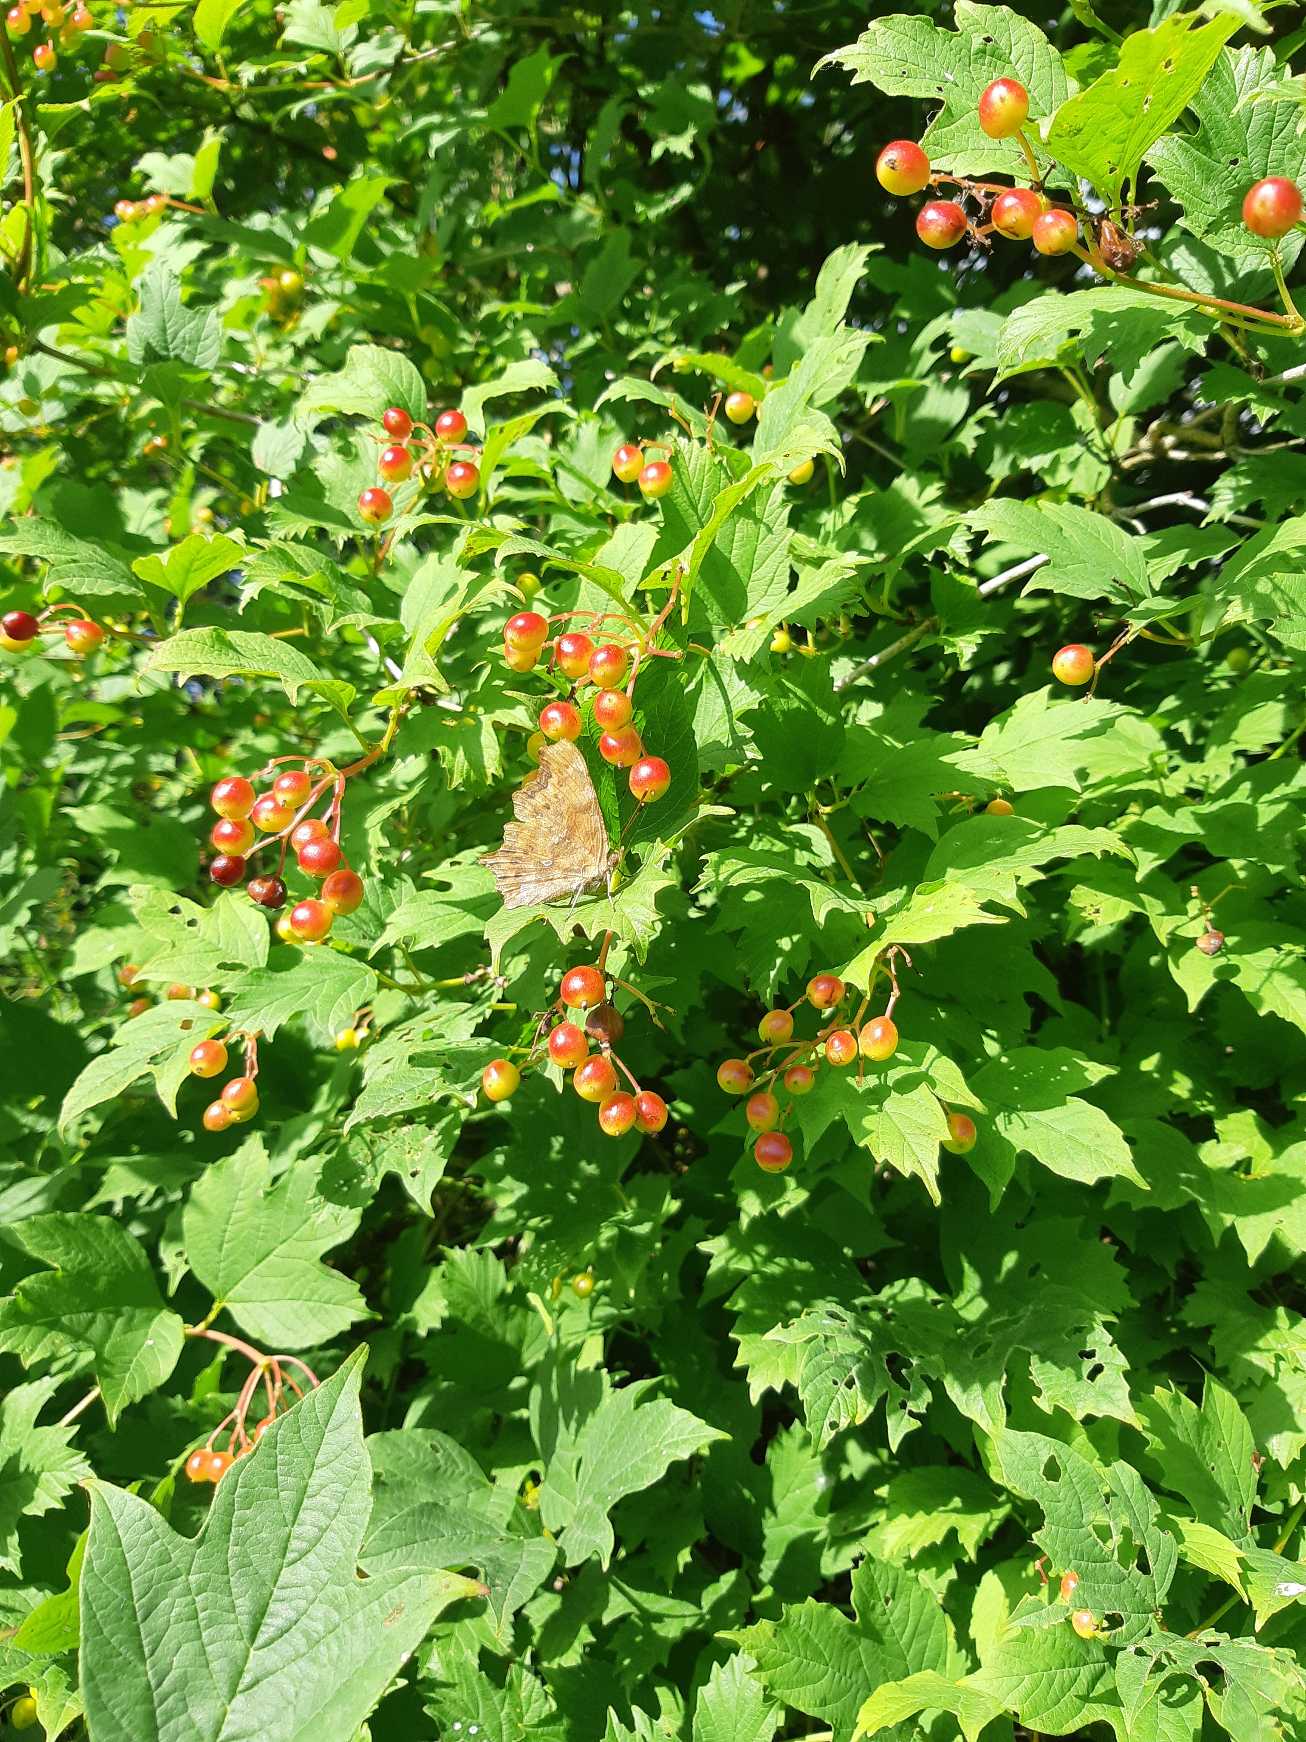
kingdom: Animalia
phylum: Arthropoda
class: Insecta
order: Lepidoptera
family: Nymphalidae
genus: Polygonia
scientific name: Polygonia c-album
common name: Det hvide C
